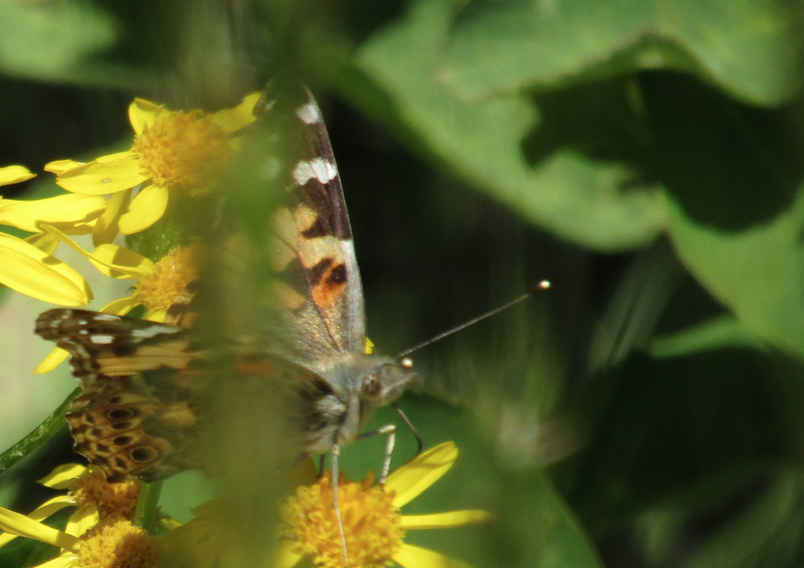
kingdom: Animalia
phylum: Arthropoda
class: Insecta
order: Lepidoptera
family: Nymphalidae
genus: Vanessa
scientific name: Vanessa cardui
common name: Painted Lady
